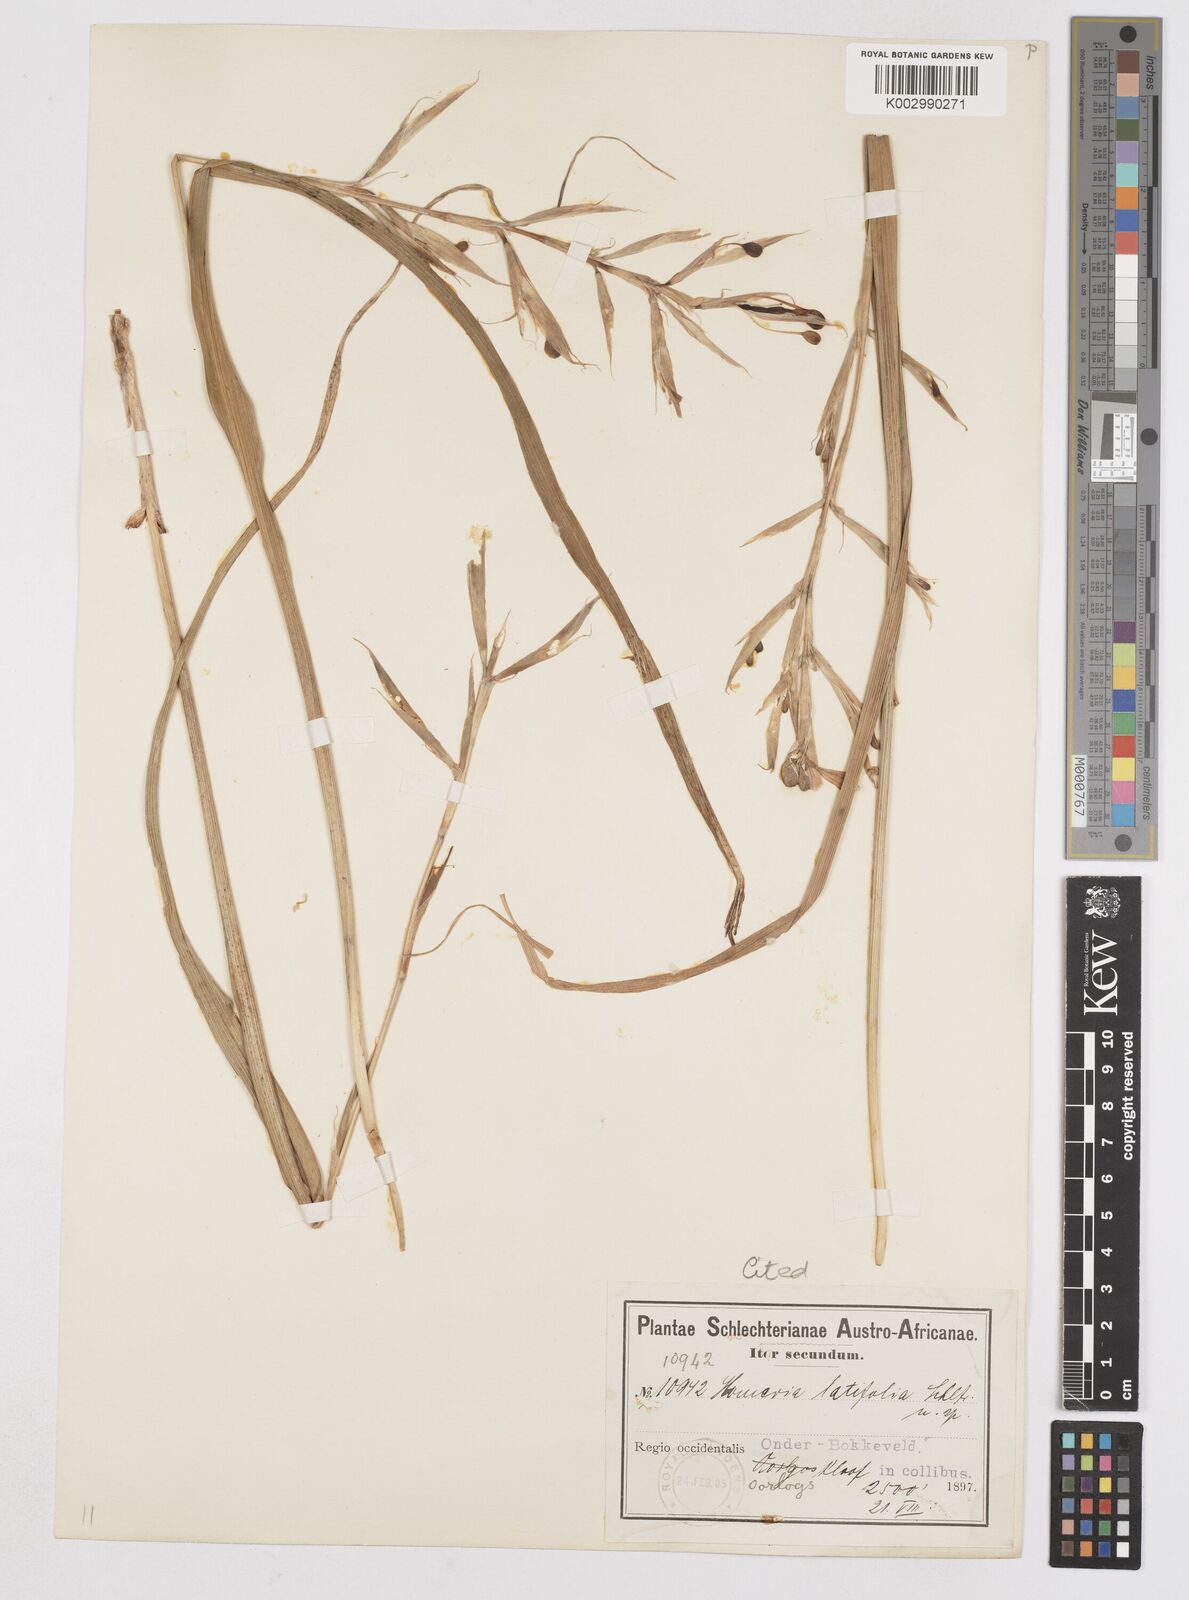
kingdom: Plantae
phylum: Tracheophyta
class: Liliopsida
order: Asparagales
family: Iridaceae
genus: Moraea
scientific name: Moraea
